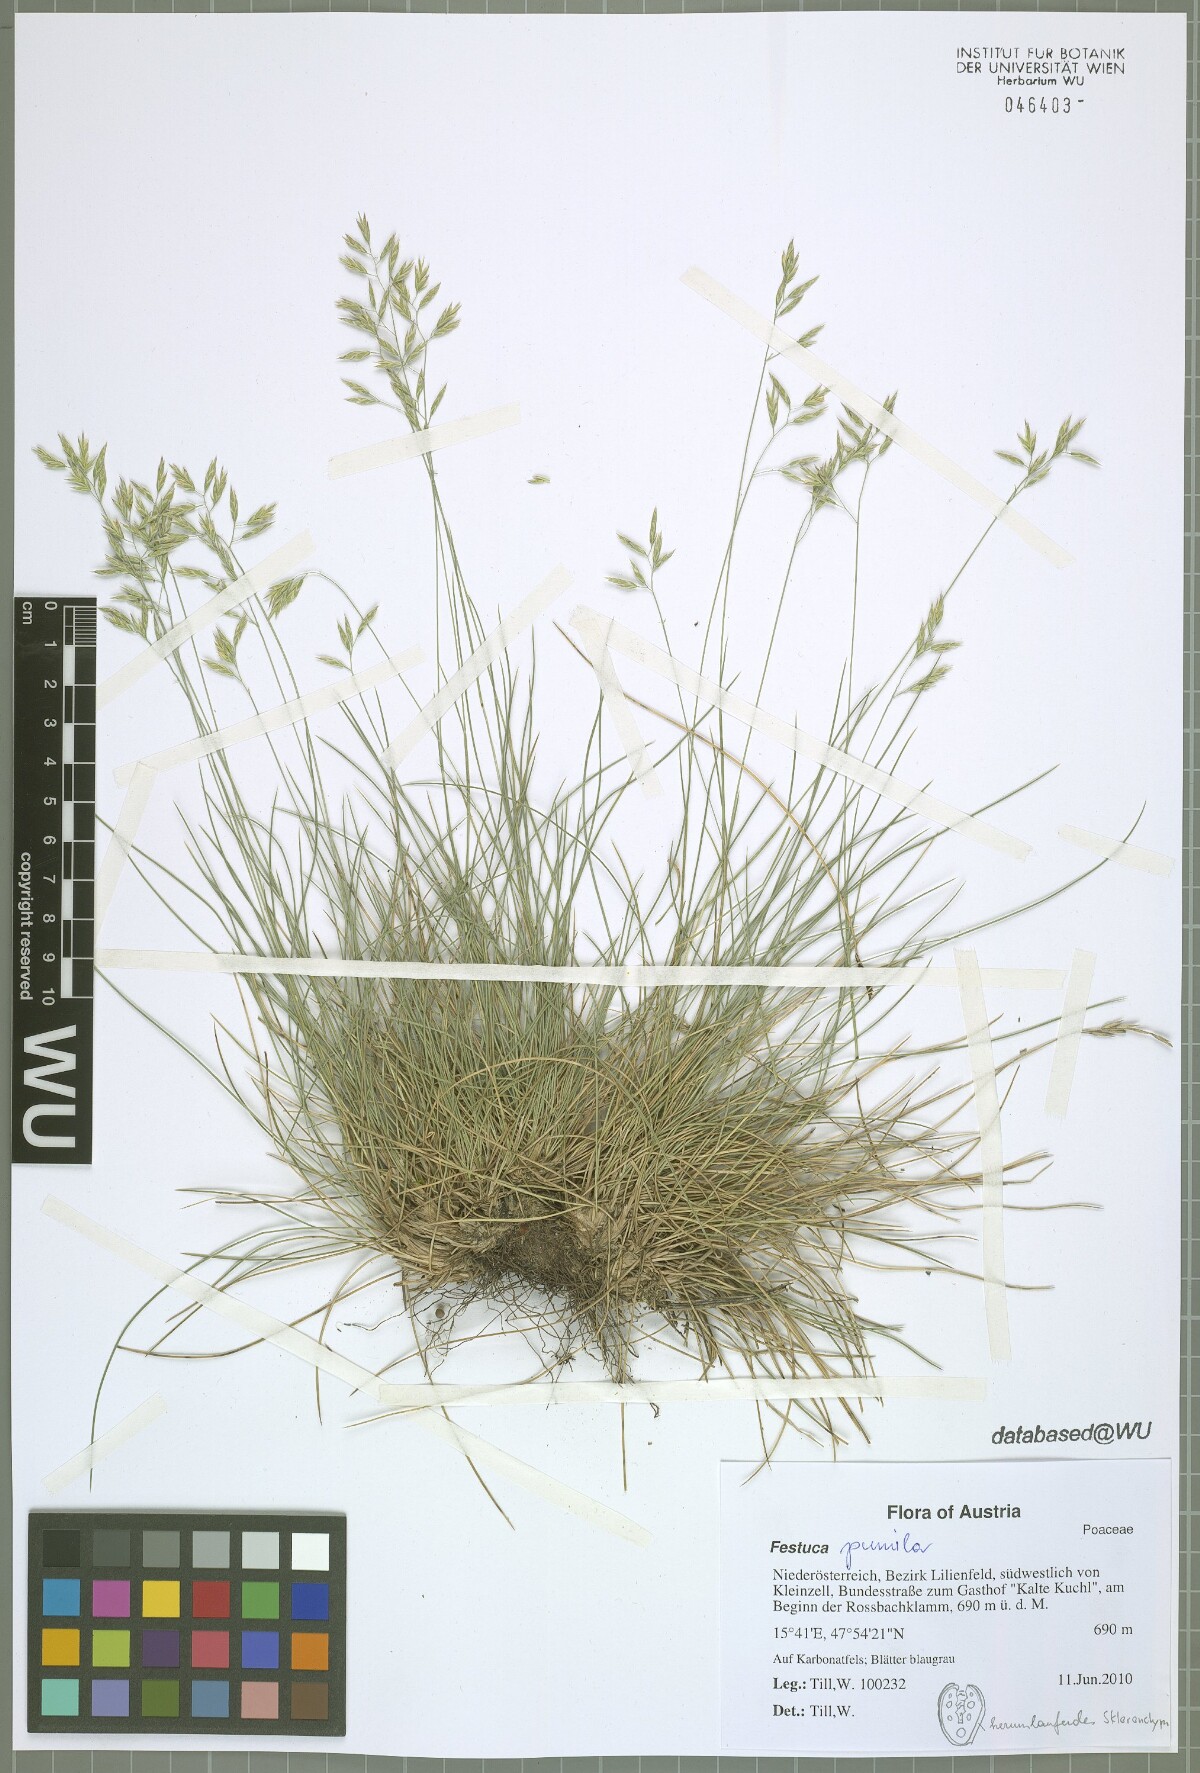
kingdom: Plantae
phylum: Tracheophyta
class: Liliopsida
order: Poales
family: Poaceae
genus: Festuca
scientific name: Festuca pallens
